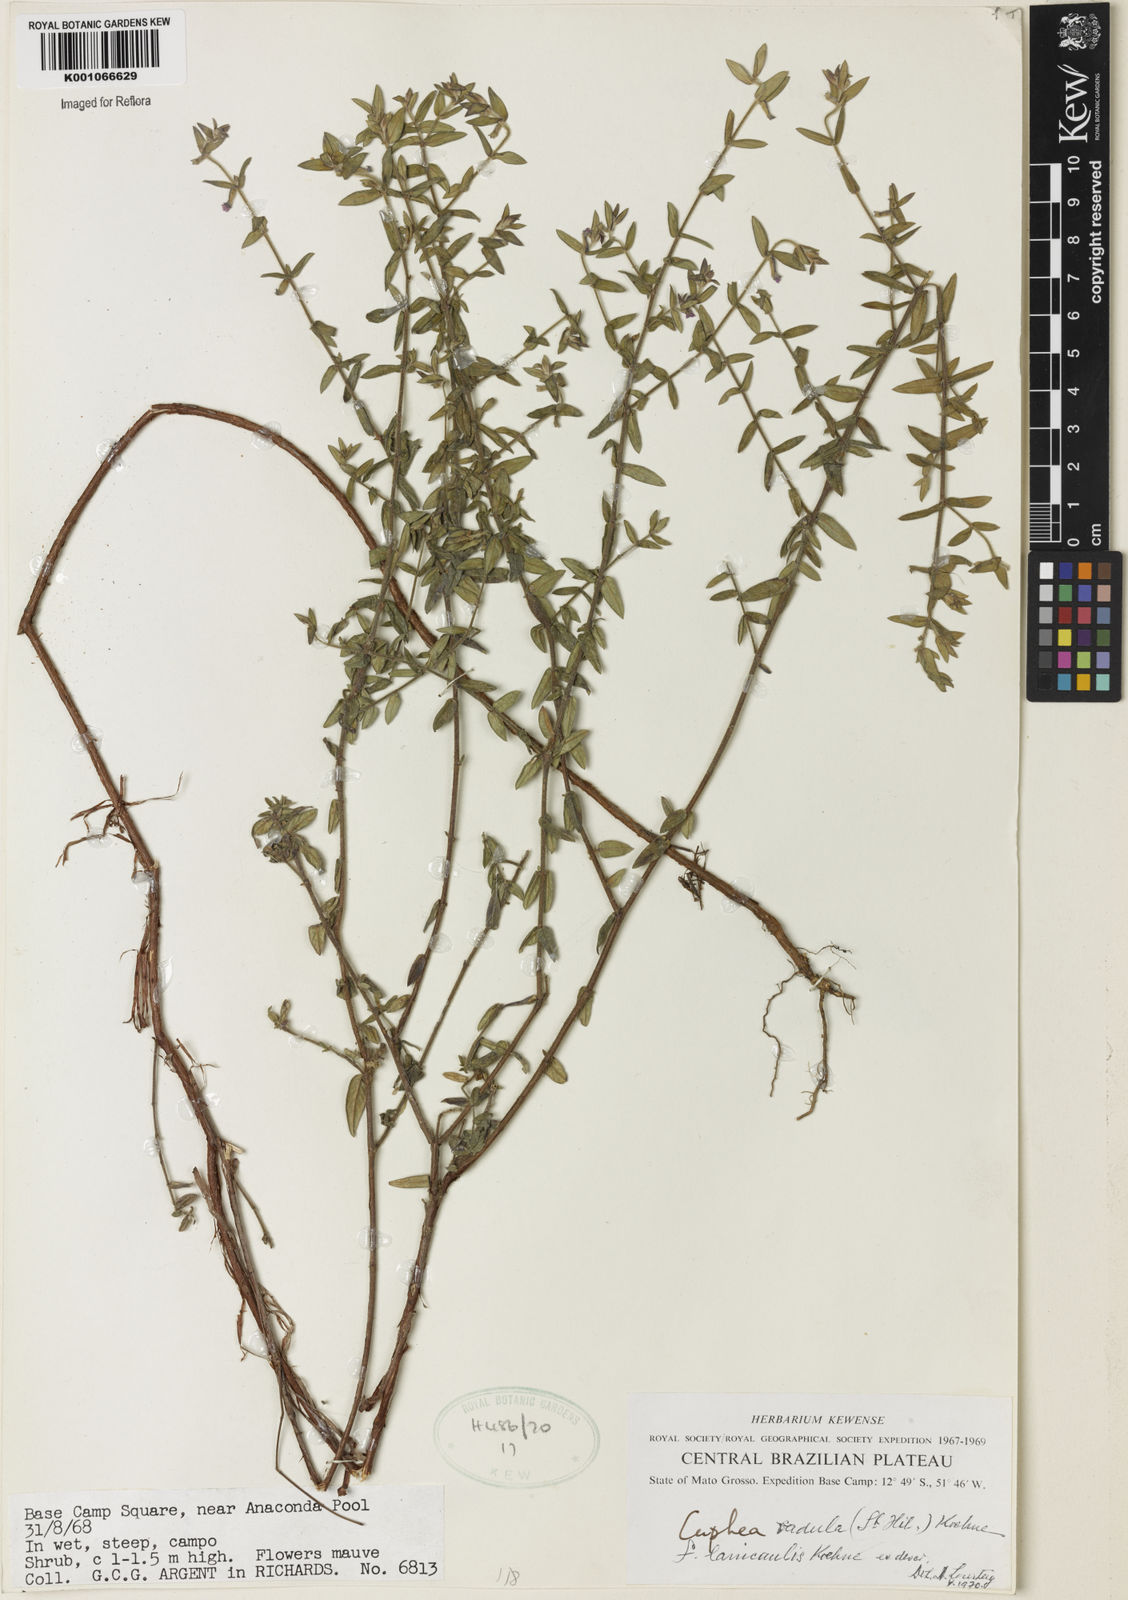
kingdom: Plantae
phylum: Tracheophyta
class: Magnoliopsida
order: Myrtales
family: Lythraceae
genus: Cuphea
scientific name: Cuphea antisyphilitica
